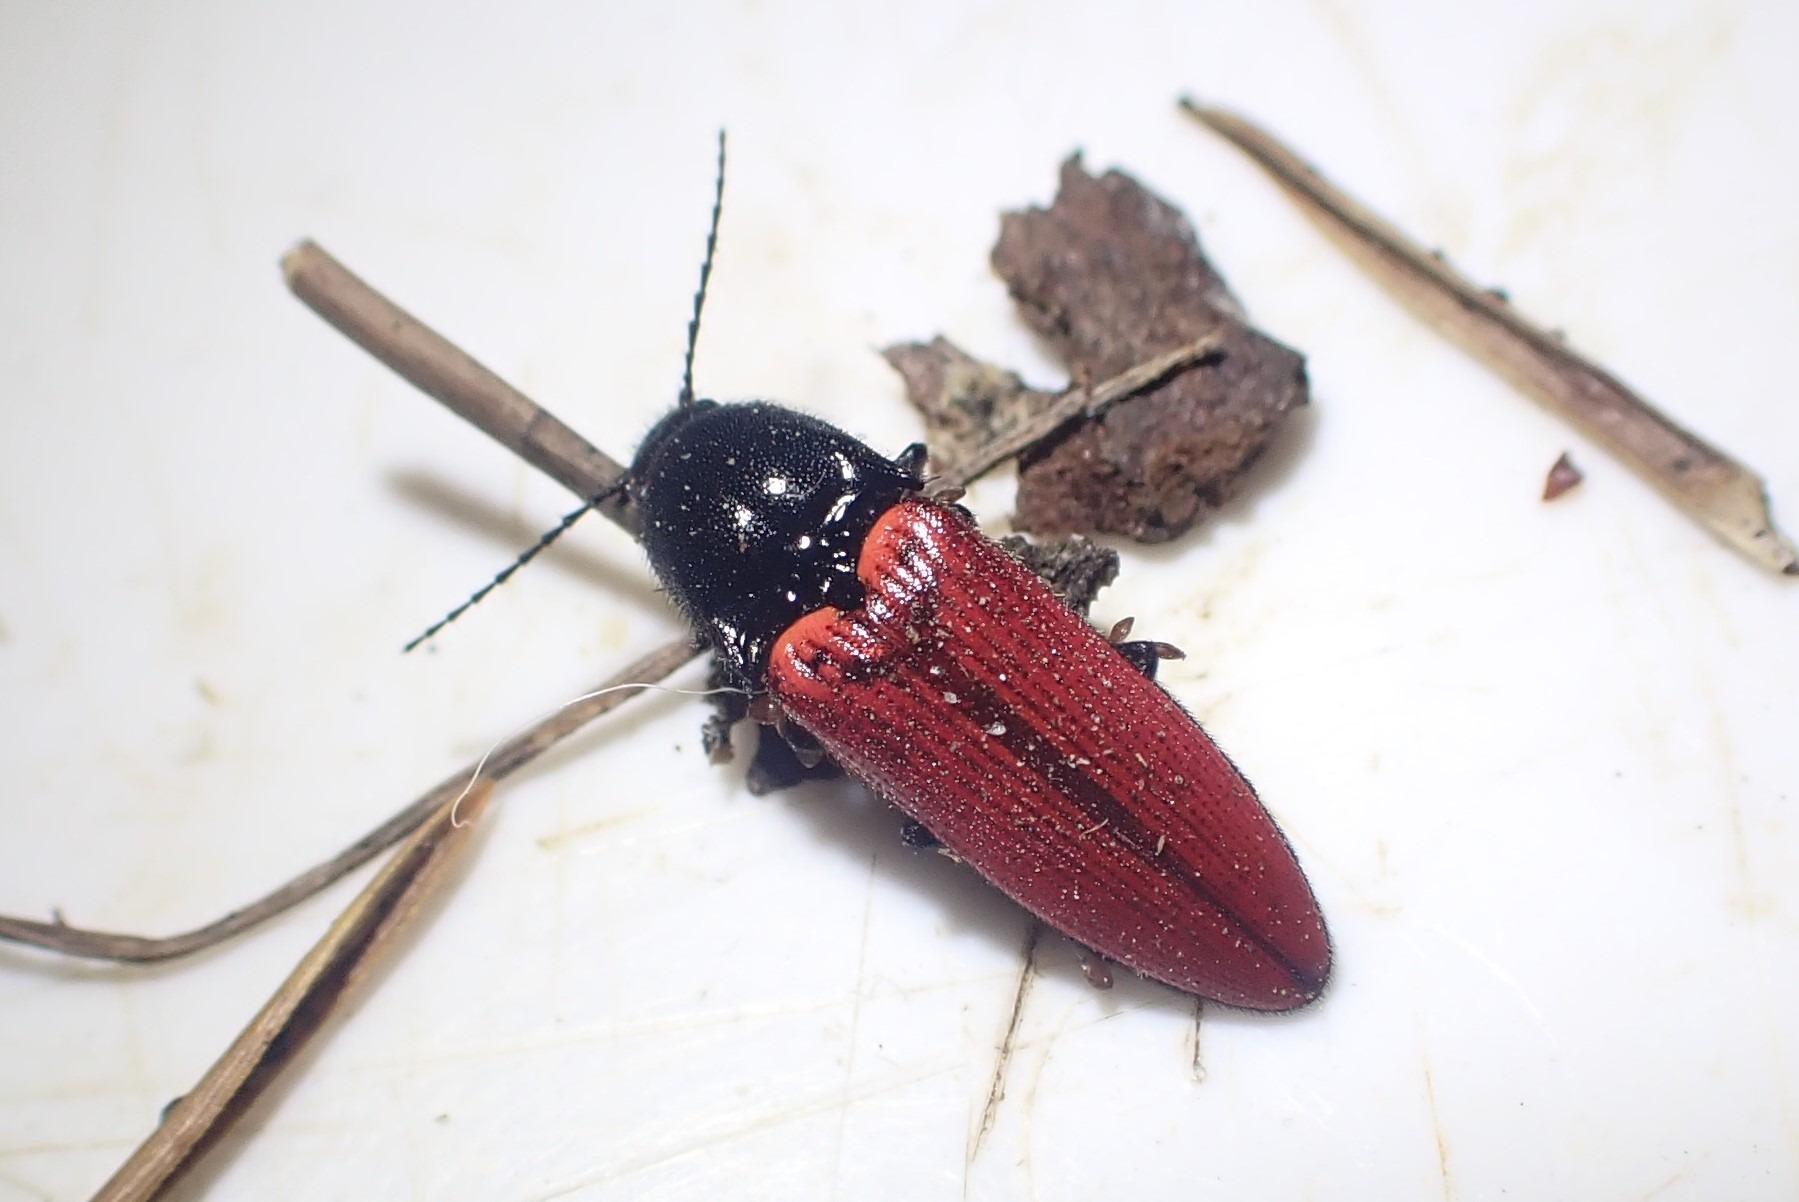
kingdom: Animalia
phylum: Arthropoda
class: Insecta
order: Coleoptera
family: Elateridae
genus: Ampedus
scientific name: Ampedus sanguineus
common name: Stor skovsmælder
